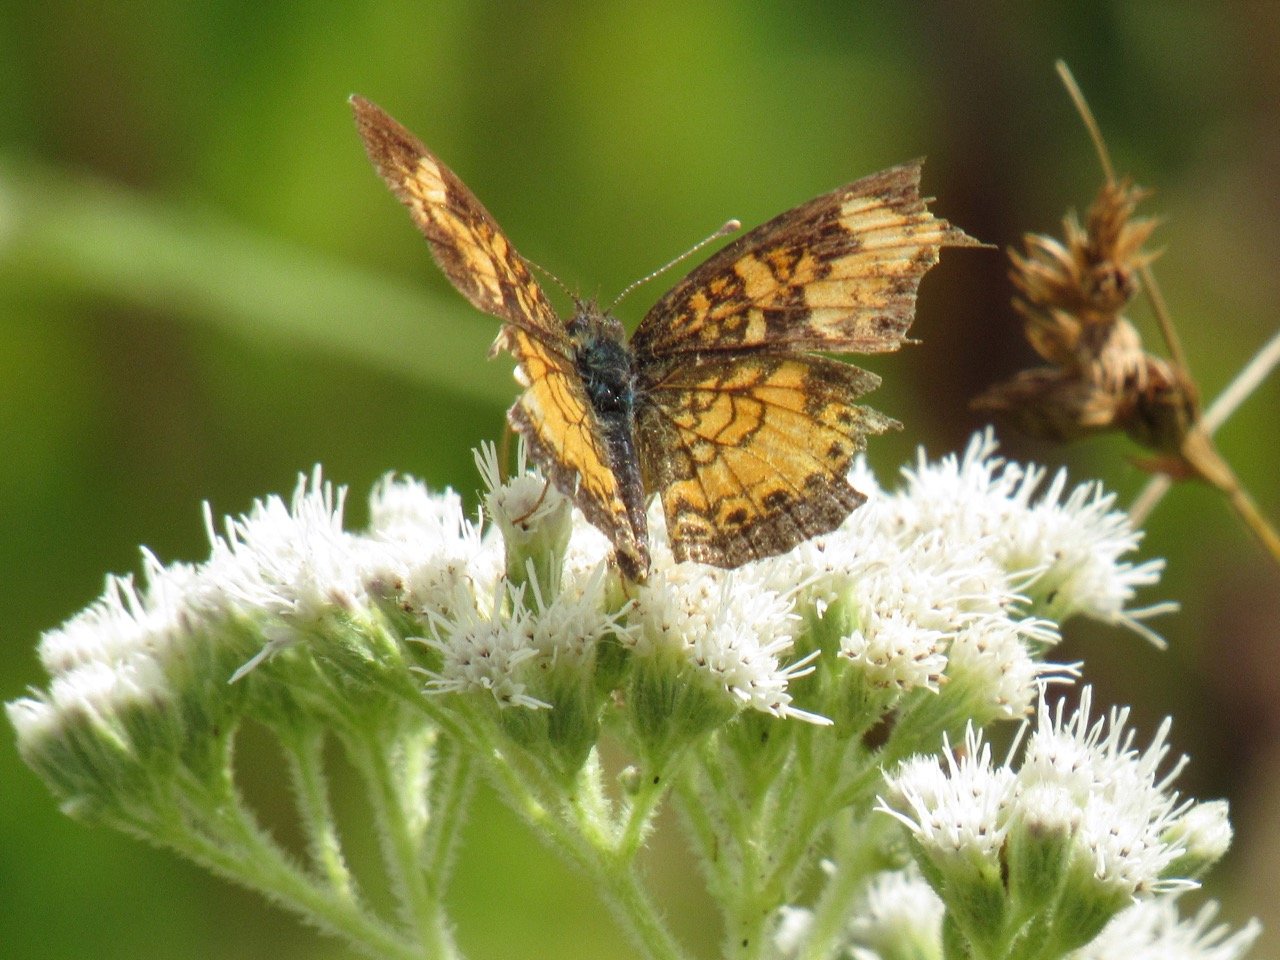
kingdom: Animalia
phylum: Arthropoda
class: Insecta
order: Lepidoptera
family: Nymphalidae
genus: Phyciodes
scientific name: Phyciodes tharos
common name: Pearl Crescent
